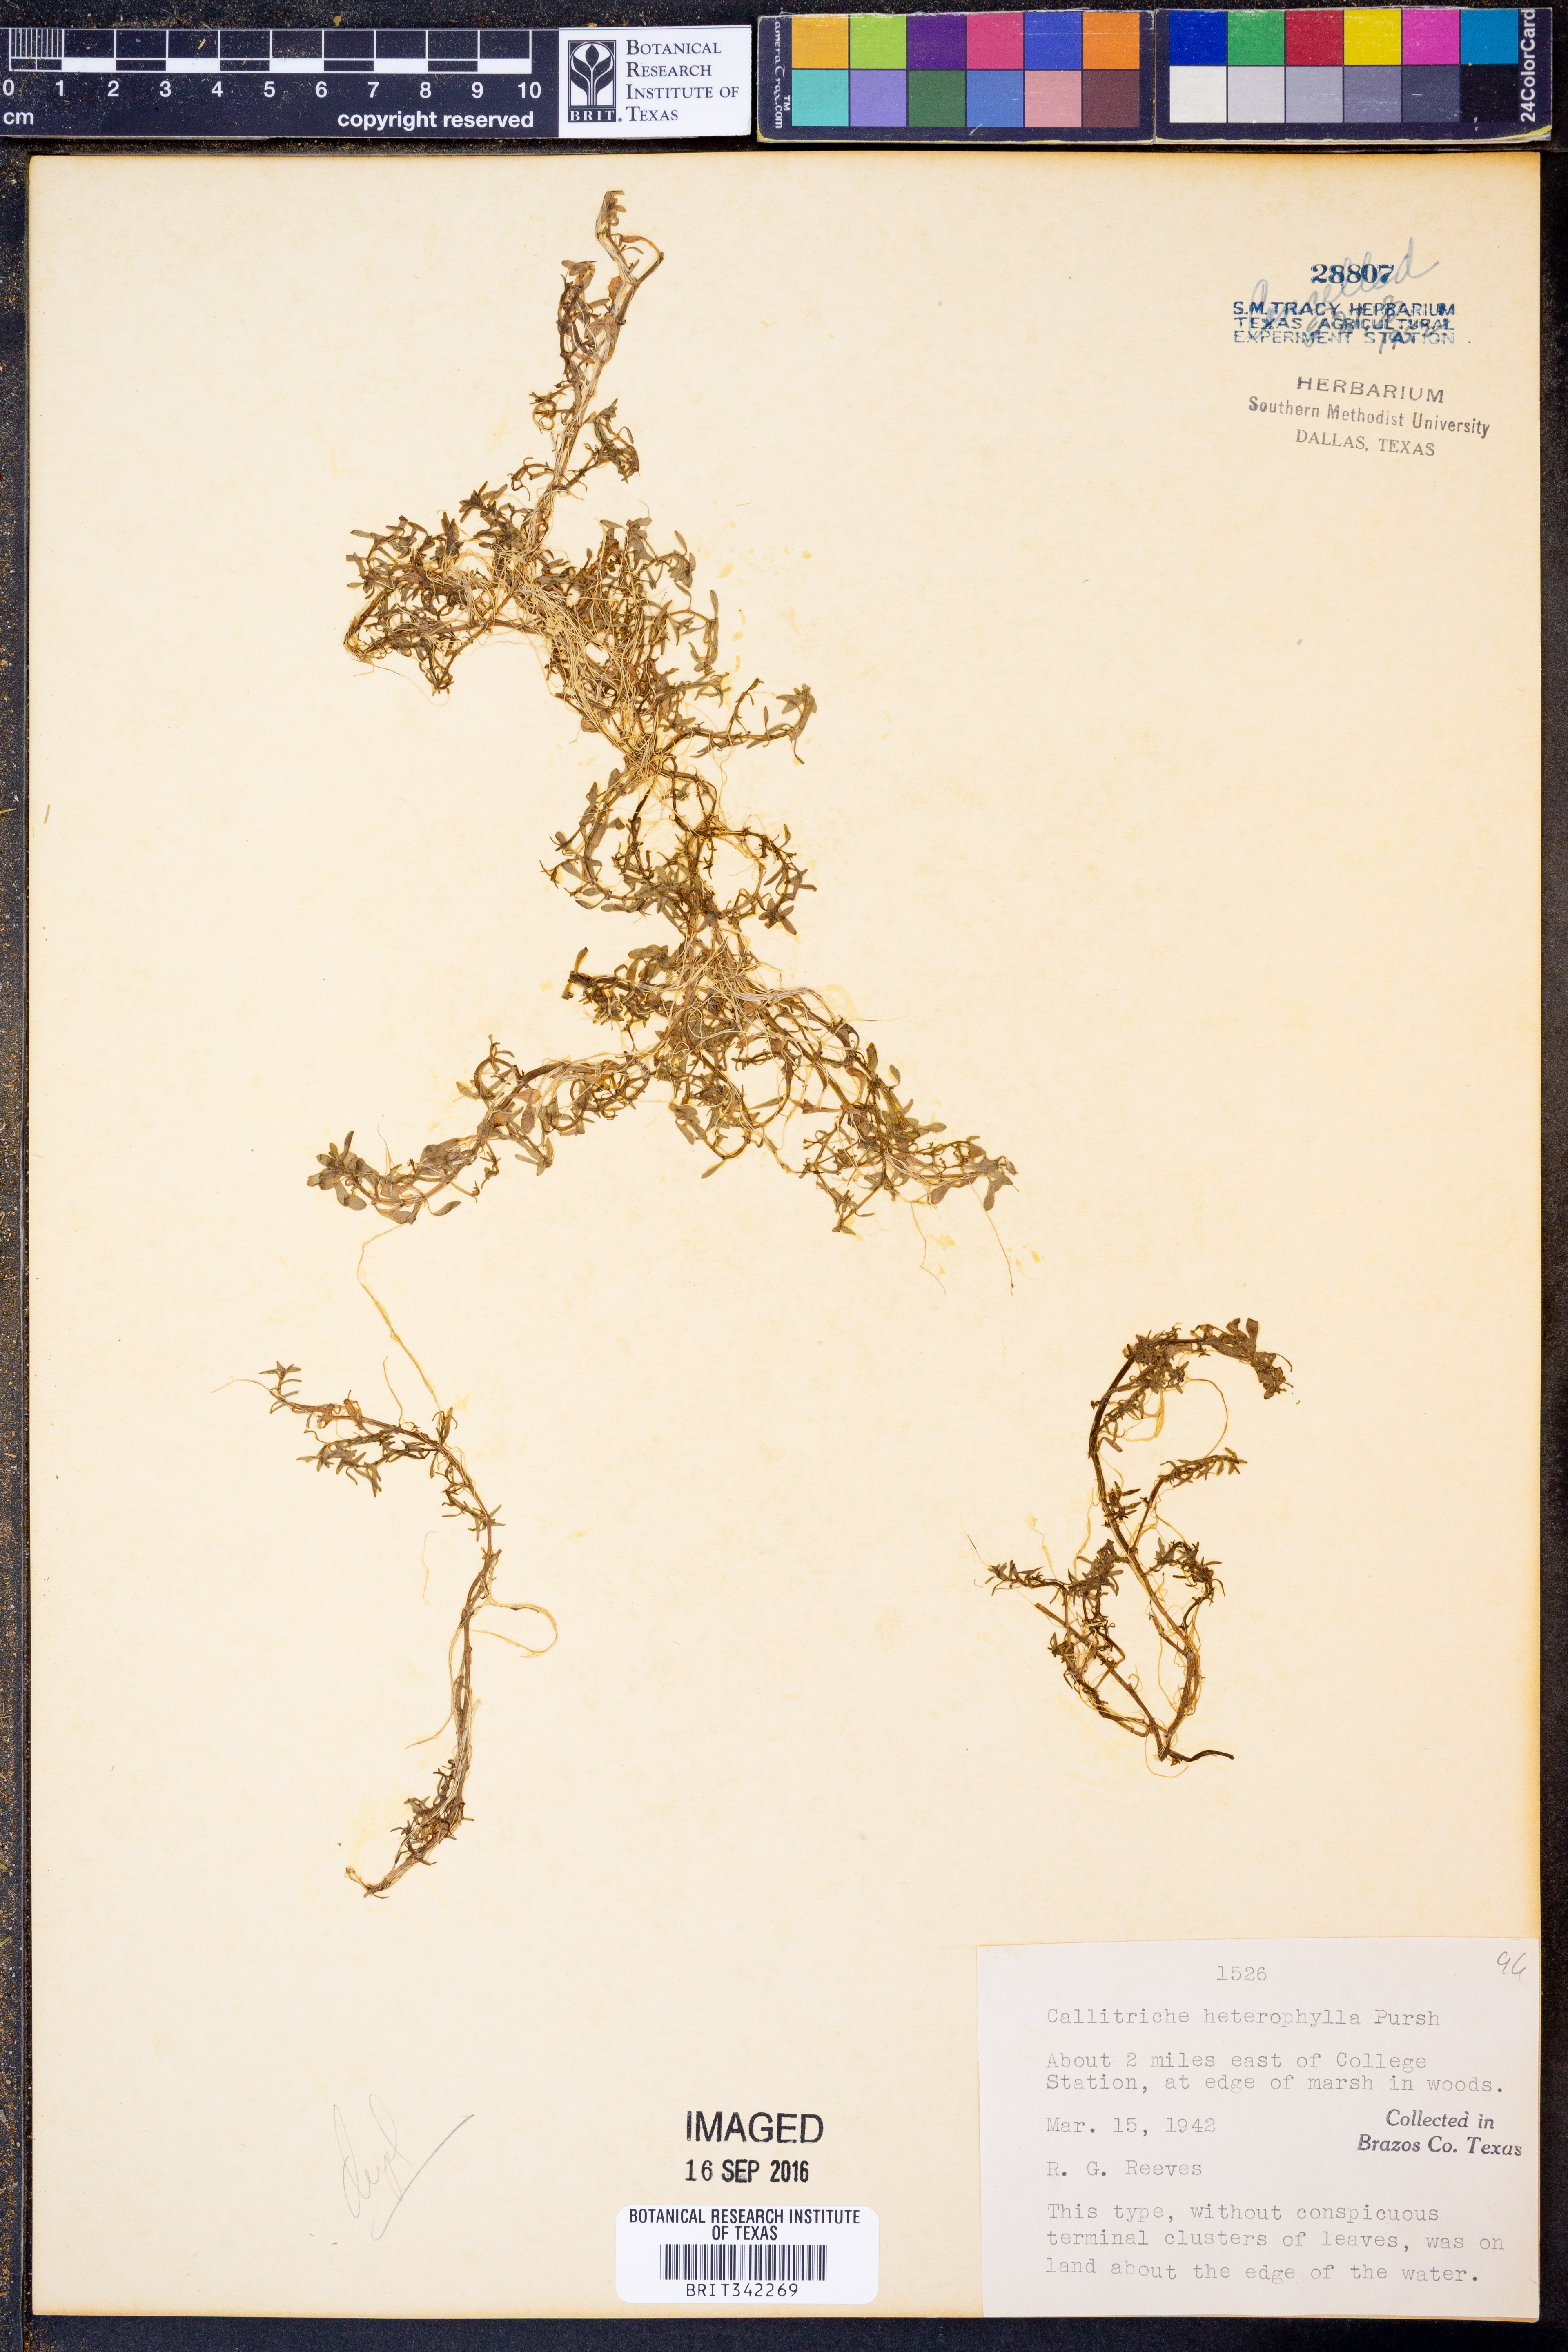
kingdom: Plantae
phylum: Tracheophyta
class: Magnoliopsida
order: Lamiales
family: Plantaginaceae
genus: Callitriche
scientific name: Callitriche heterophylla
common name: Two-headed water-starwort
